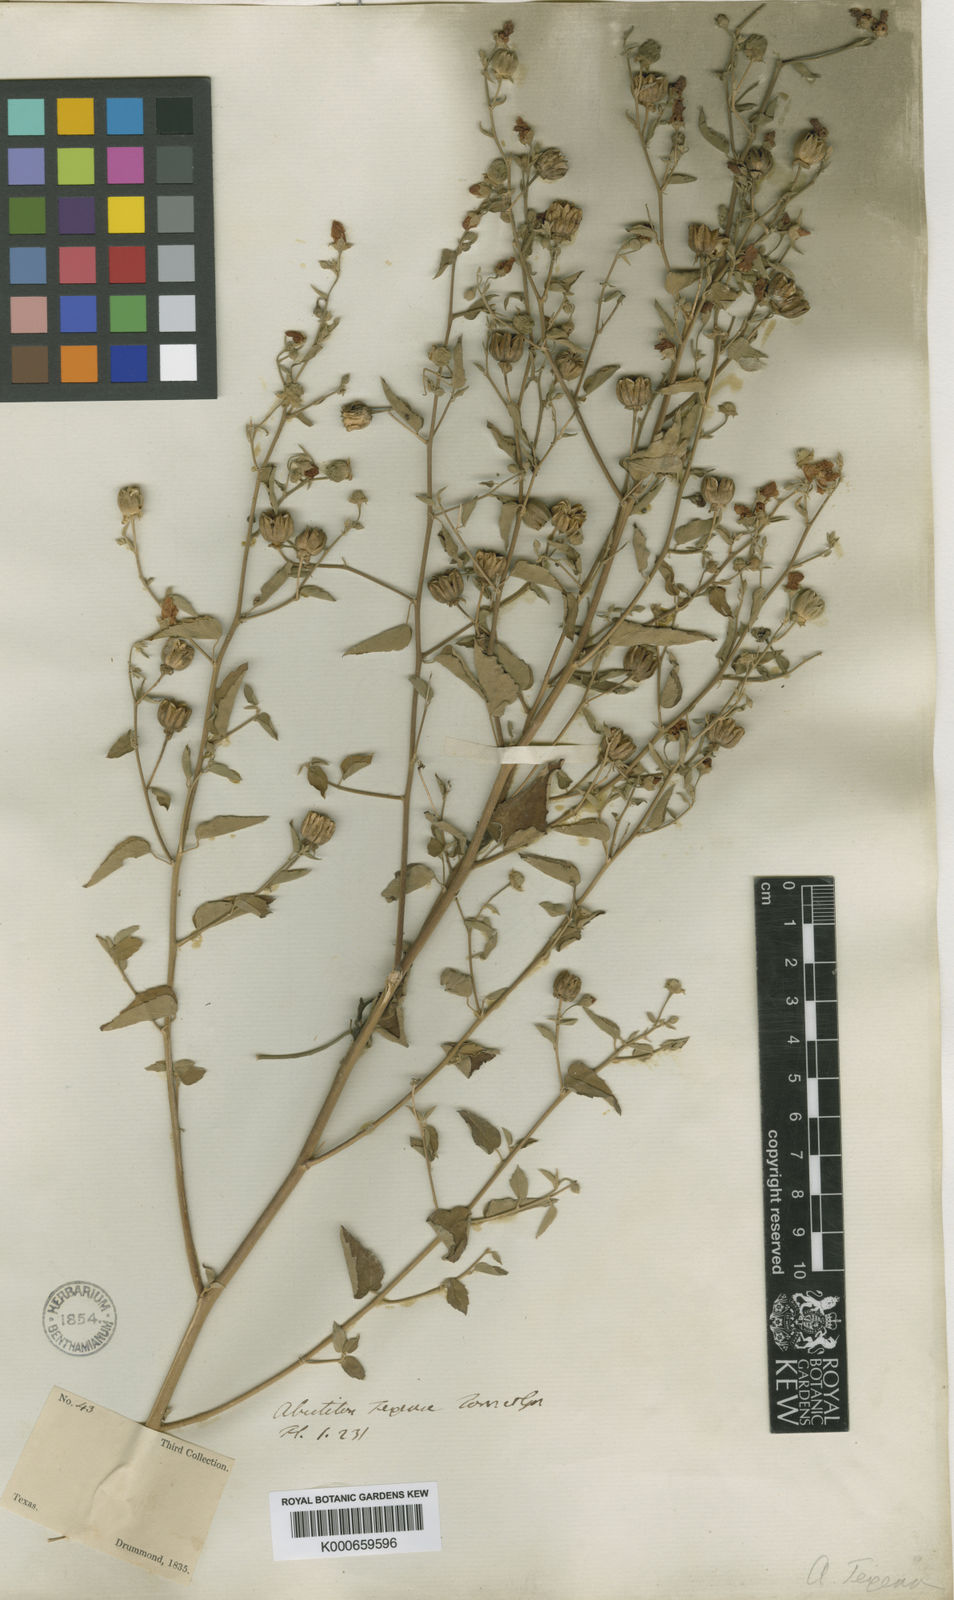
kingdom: Plantae
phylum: Tracheophyta
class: Magnoliopsida
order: Malvales
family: Malvaceae
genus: Abutilon
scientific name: Abutilon fruticosum
